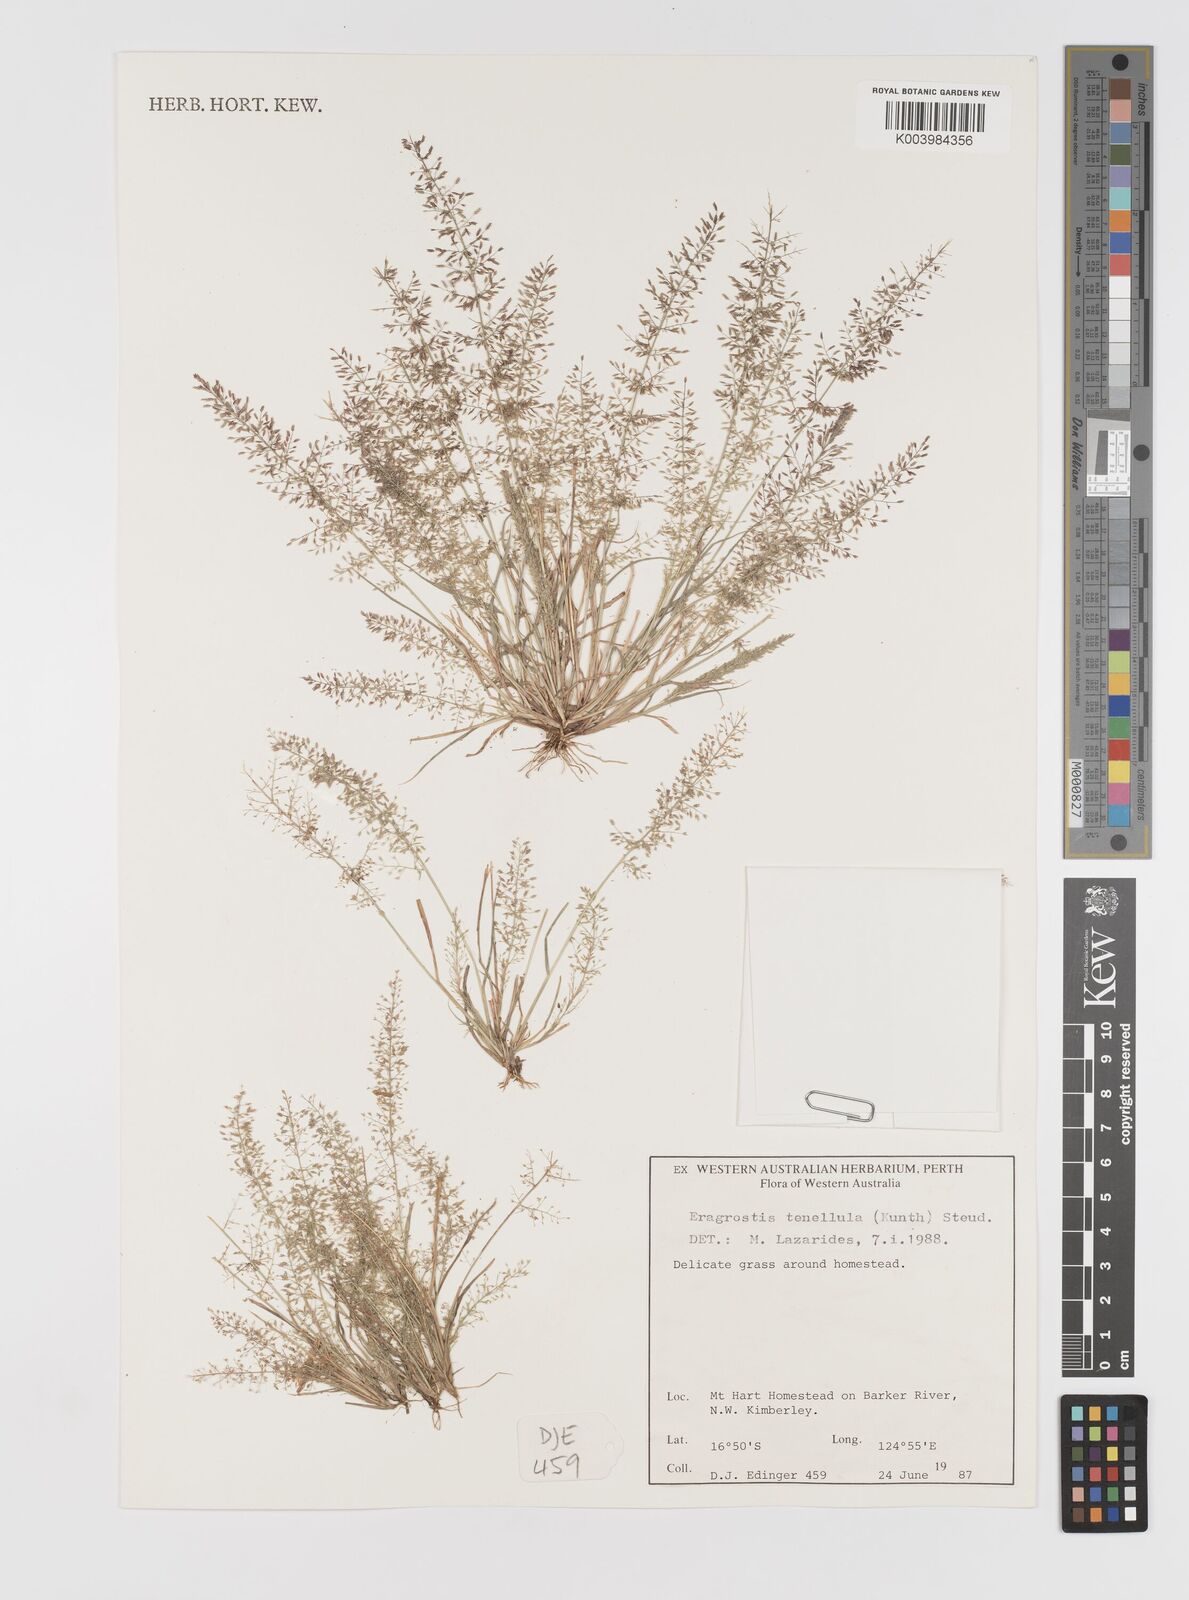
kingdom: Plantae
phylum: Tracheophyta
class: Liliopsida
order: Poales
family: Poaceae
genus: Eragrostis
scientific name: Eragrostis tenellula
